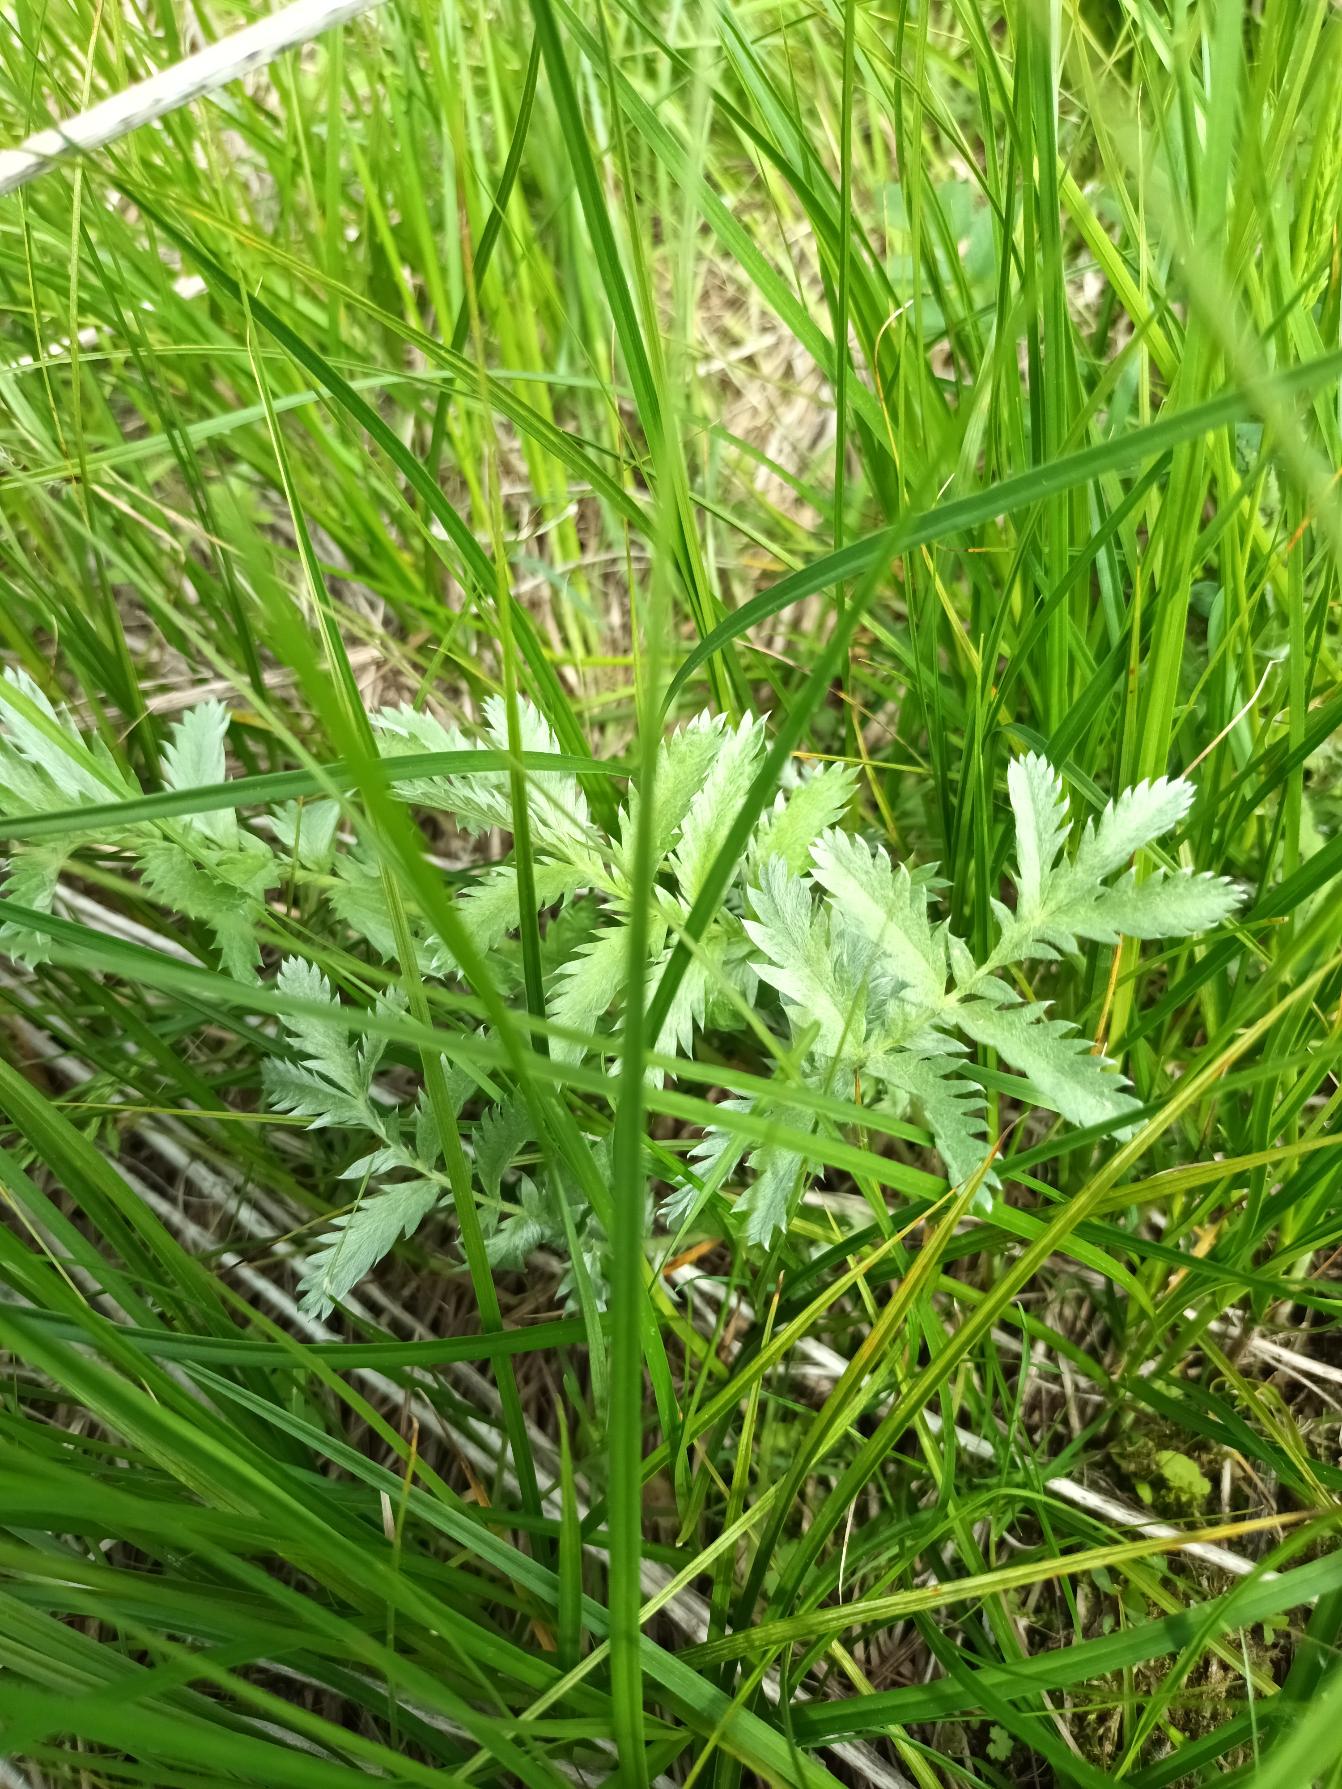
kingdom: Plantae
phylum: Tracheophyta
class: Magnoliopsida
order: Rosales
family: Rosaceae
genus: Argentina
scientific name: Argentina anserina
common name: Gåsepotentil
